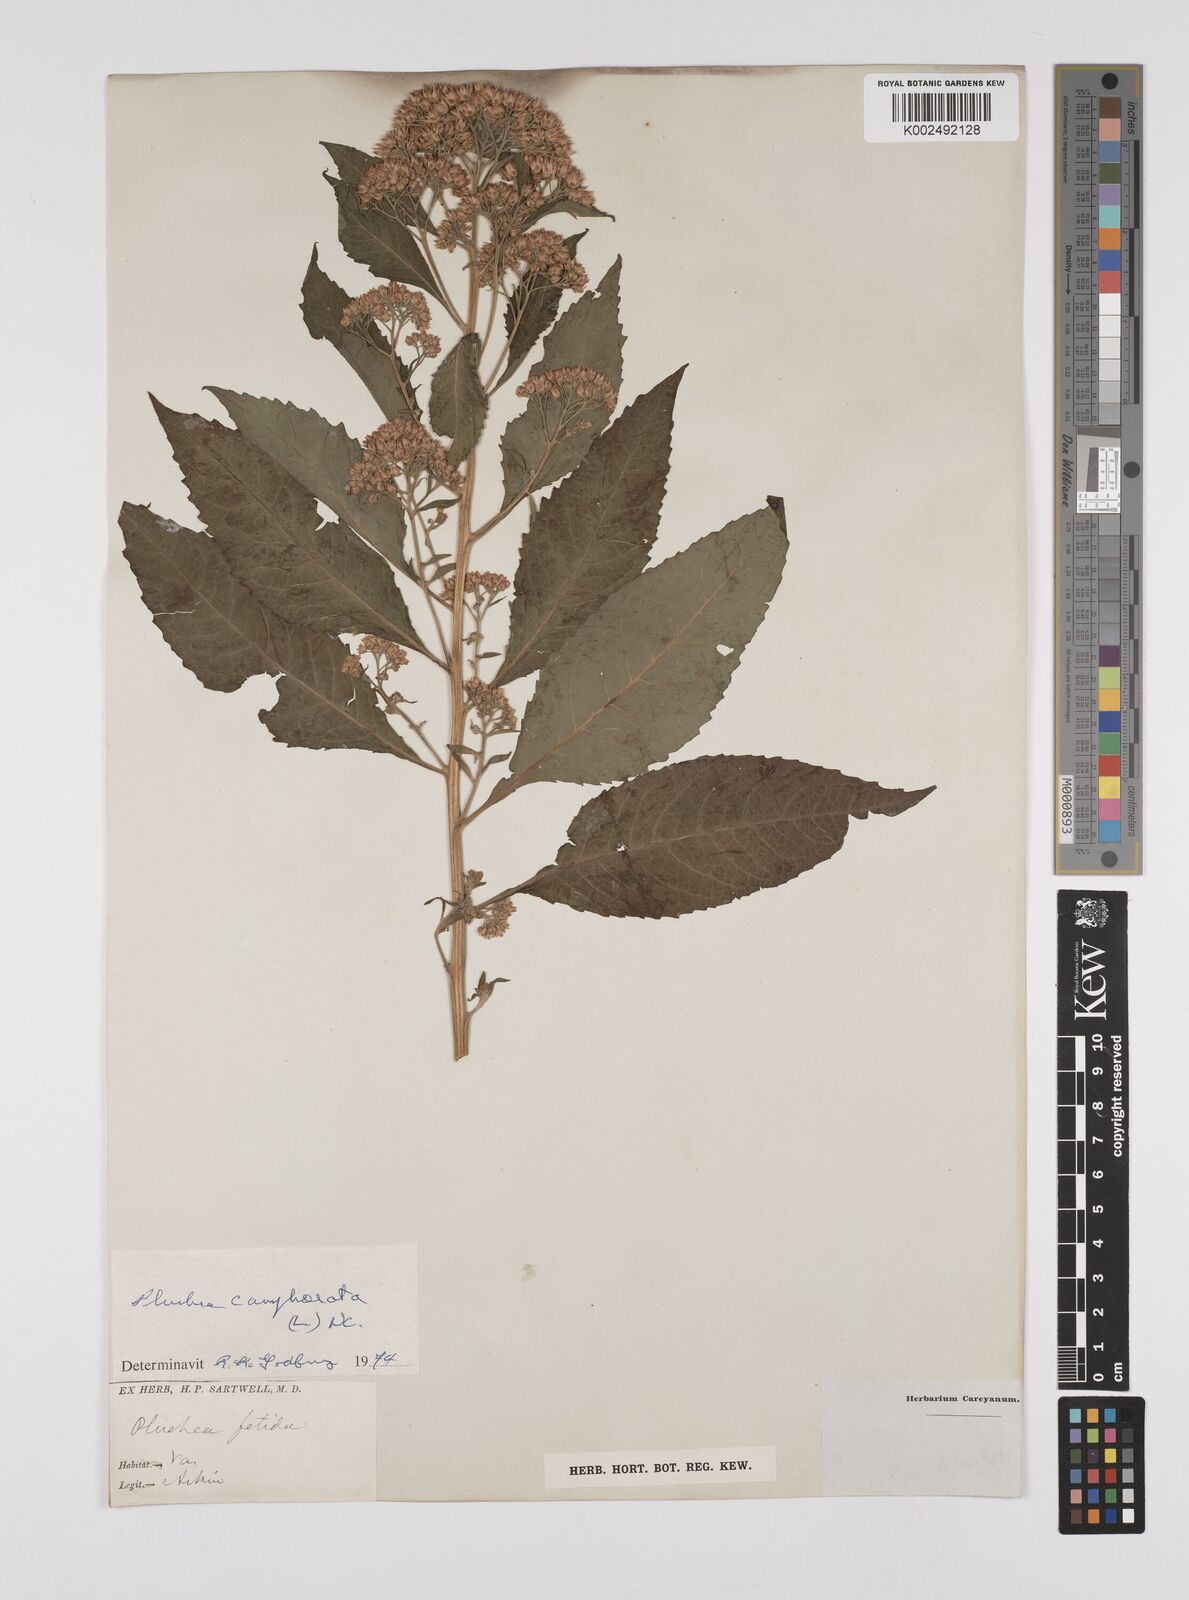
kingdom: Plantae
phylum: Tracheophyta
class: Magnoliopsida
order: Asterales
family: Asteraceae
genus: Pluchea
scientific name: Pluchea camphorata
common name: Camphor pluchea
